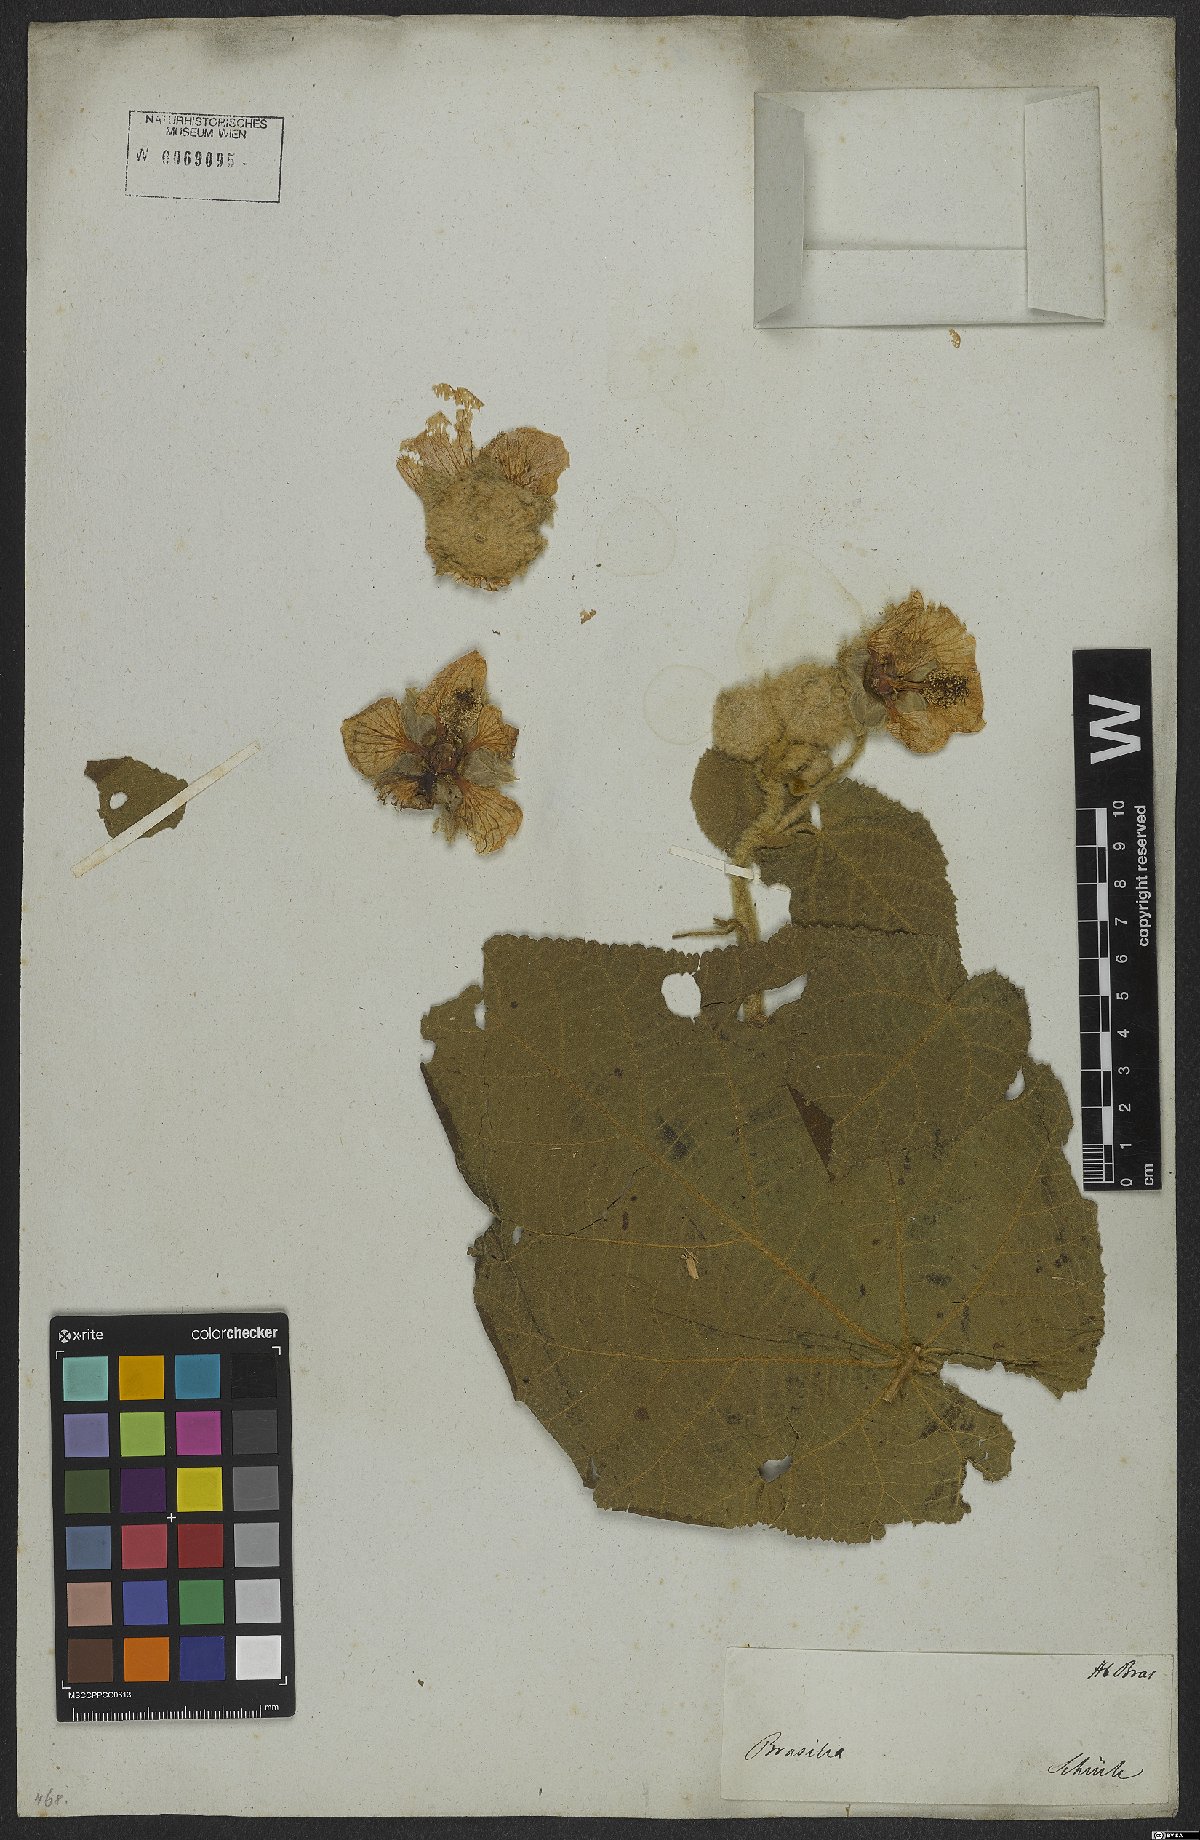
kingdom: Plantae
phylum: Tracheophyta
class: Magnoliopsida
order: Malvales
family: Malvaceae
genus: Callianthe
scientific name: Callianthe lanata
